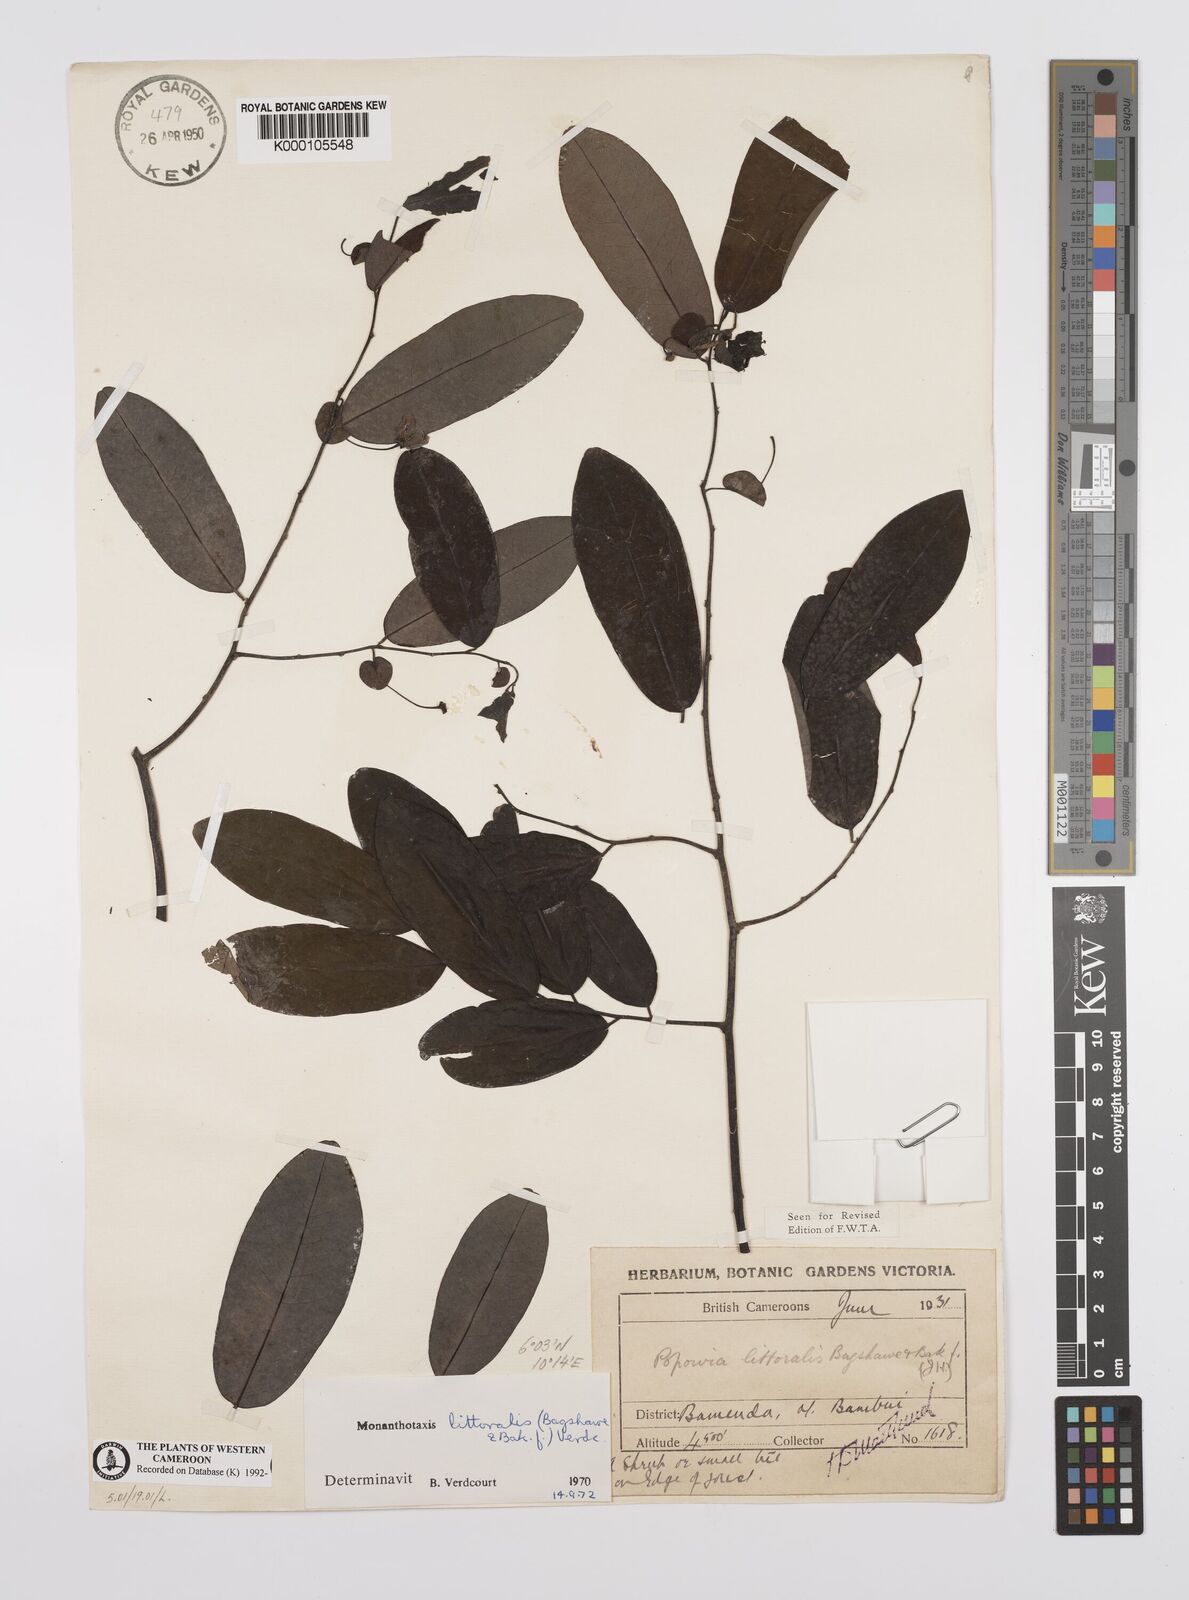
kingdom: Plantae
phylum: Tracheophyta
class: Magnoliopsida
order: Magnoliales
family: Annonaceae
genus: Monanthotaxis
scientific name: Monanthotaxis littoralis
